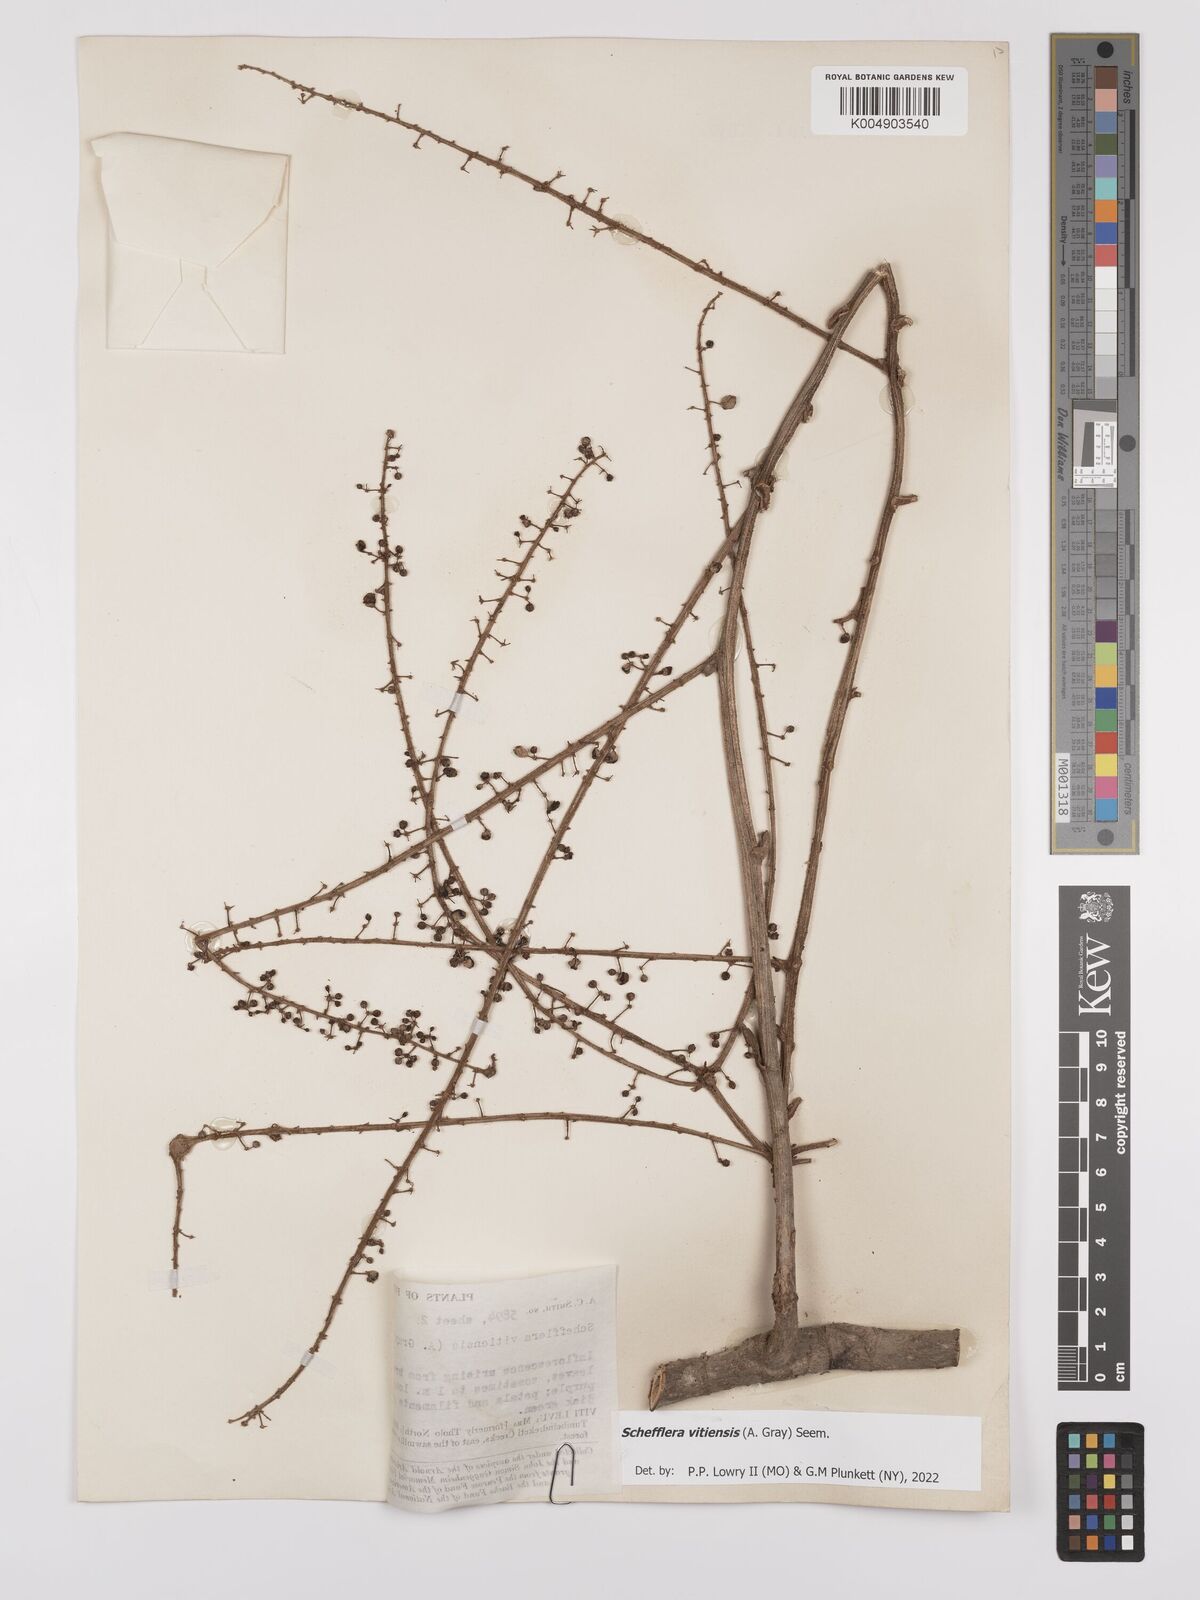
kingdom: Plantae
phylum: Tracheophyta
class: Magnoliopsida
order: Apiales
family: Araliaceae
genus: Schefflera
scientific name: Schefflera vitiensis
